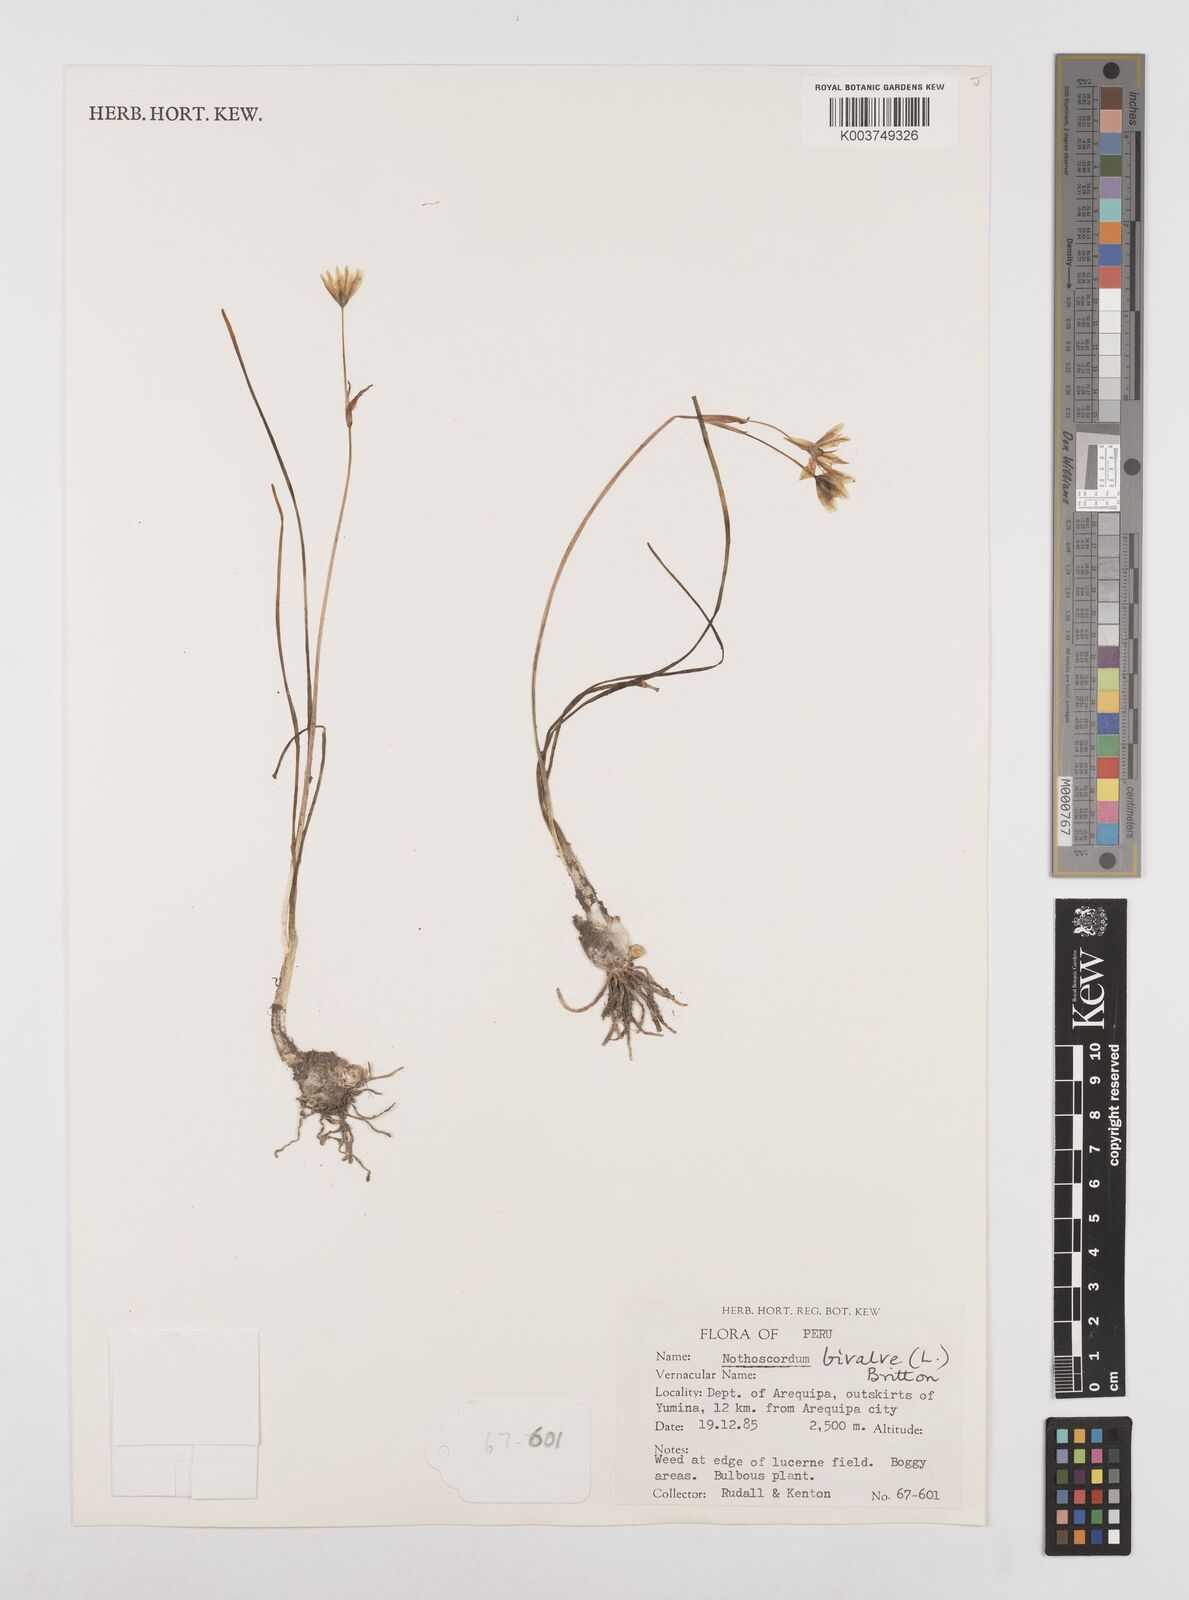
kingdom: Plantae
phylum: Tracheophyta
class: Liliopsida
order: Asparagales
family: Amaryllidaceae
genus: Nothoscordum
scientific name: Nothoscordum bivalve
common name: Crow-poison
